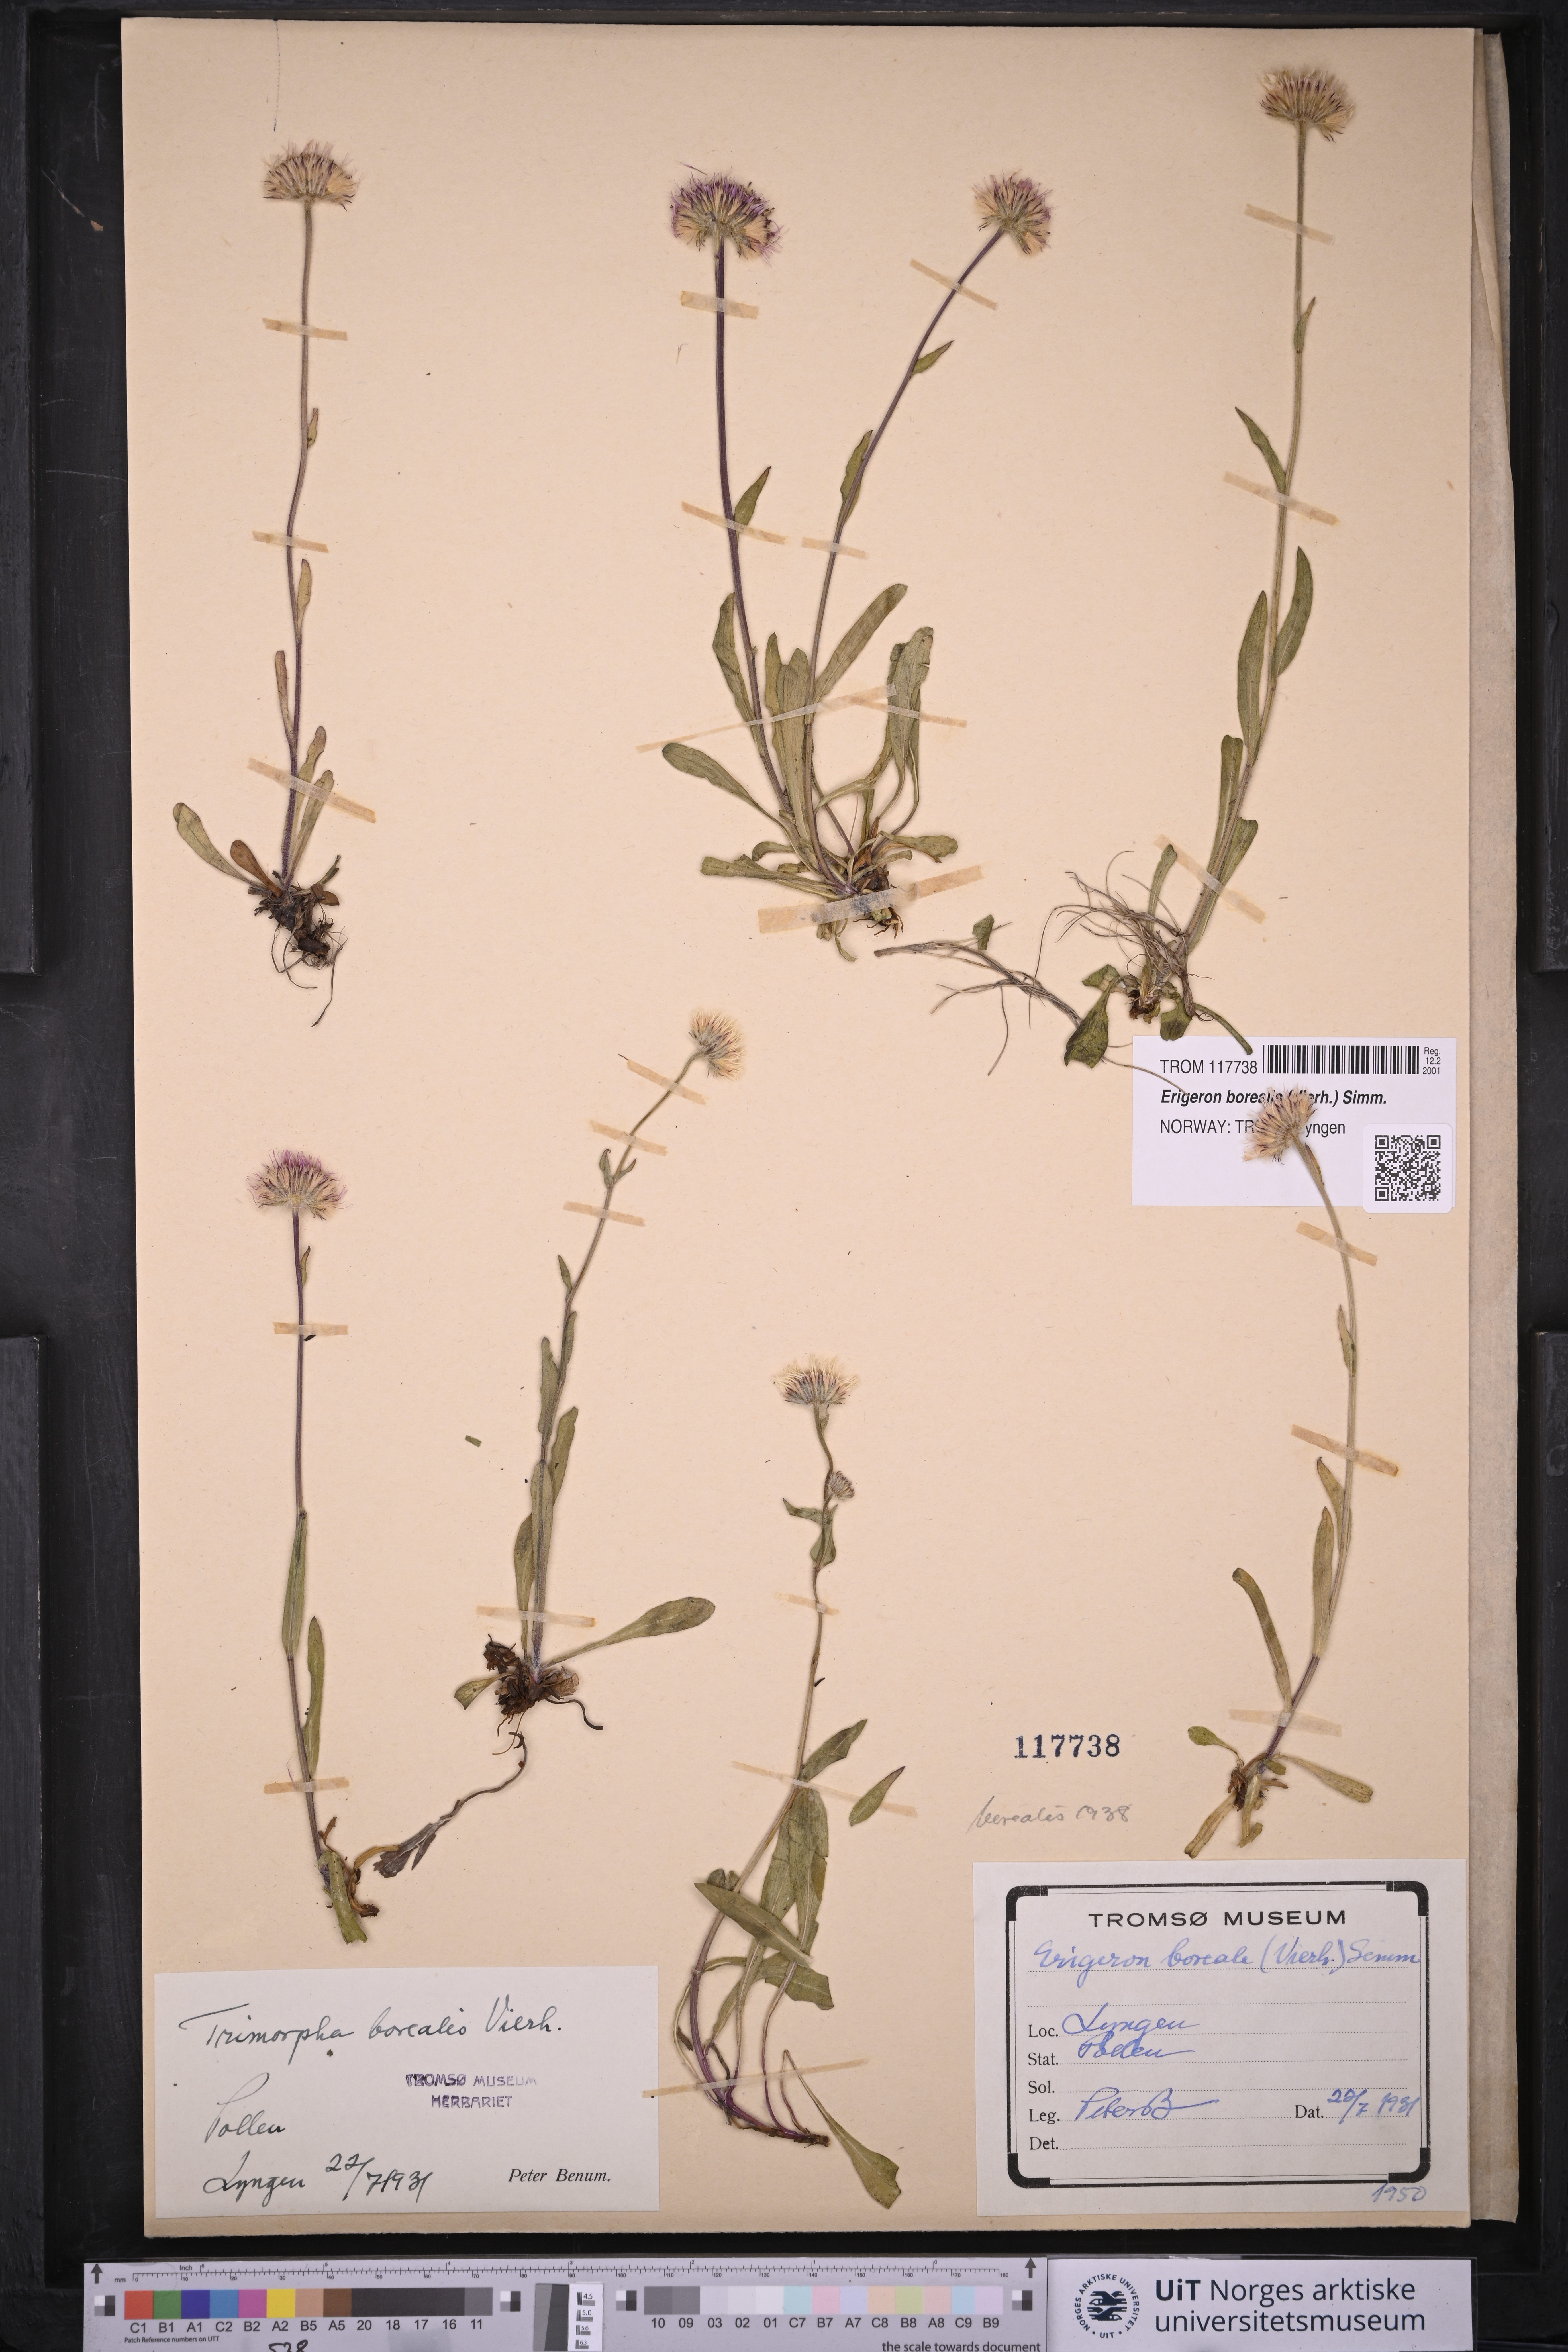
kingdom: Plantae
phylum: Tracheophyta
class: Magnoliopsida
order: Asterales
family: Asteraceae
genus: Erigeron
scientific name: Erigeron borealis
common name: Alpine fleabane
